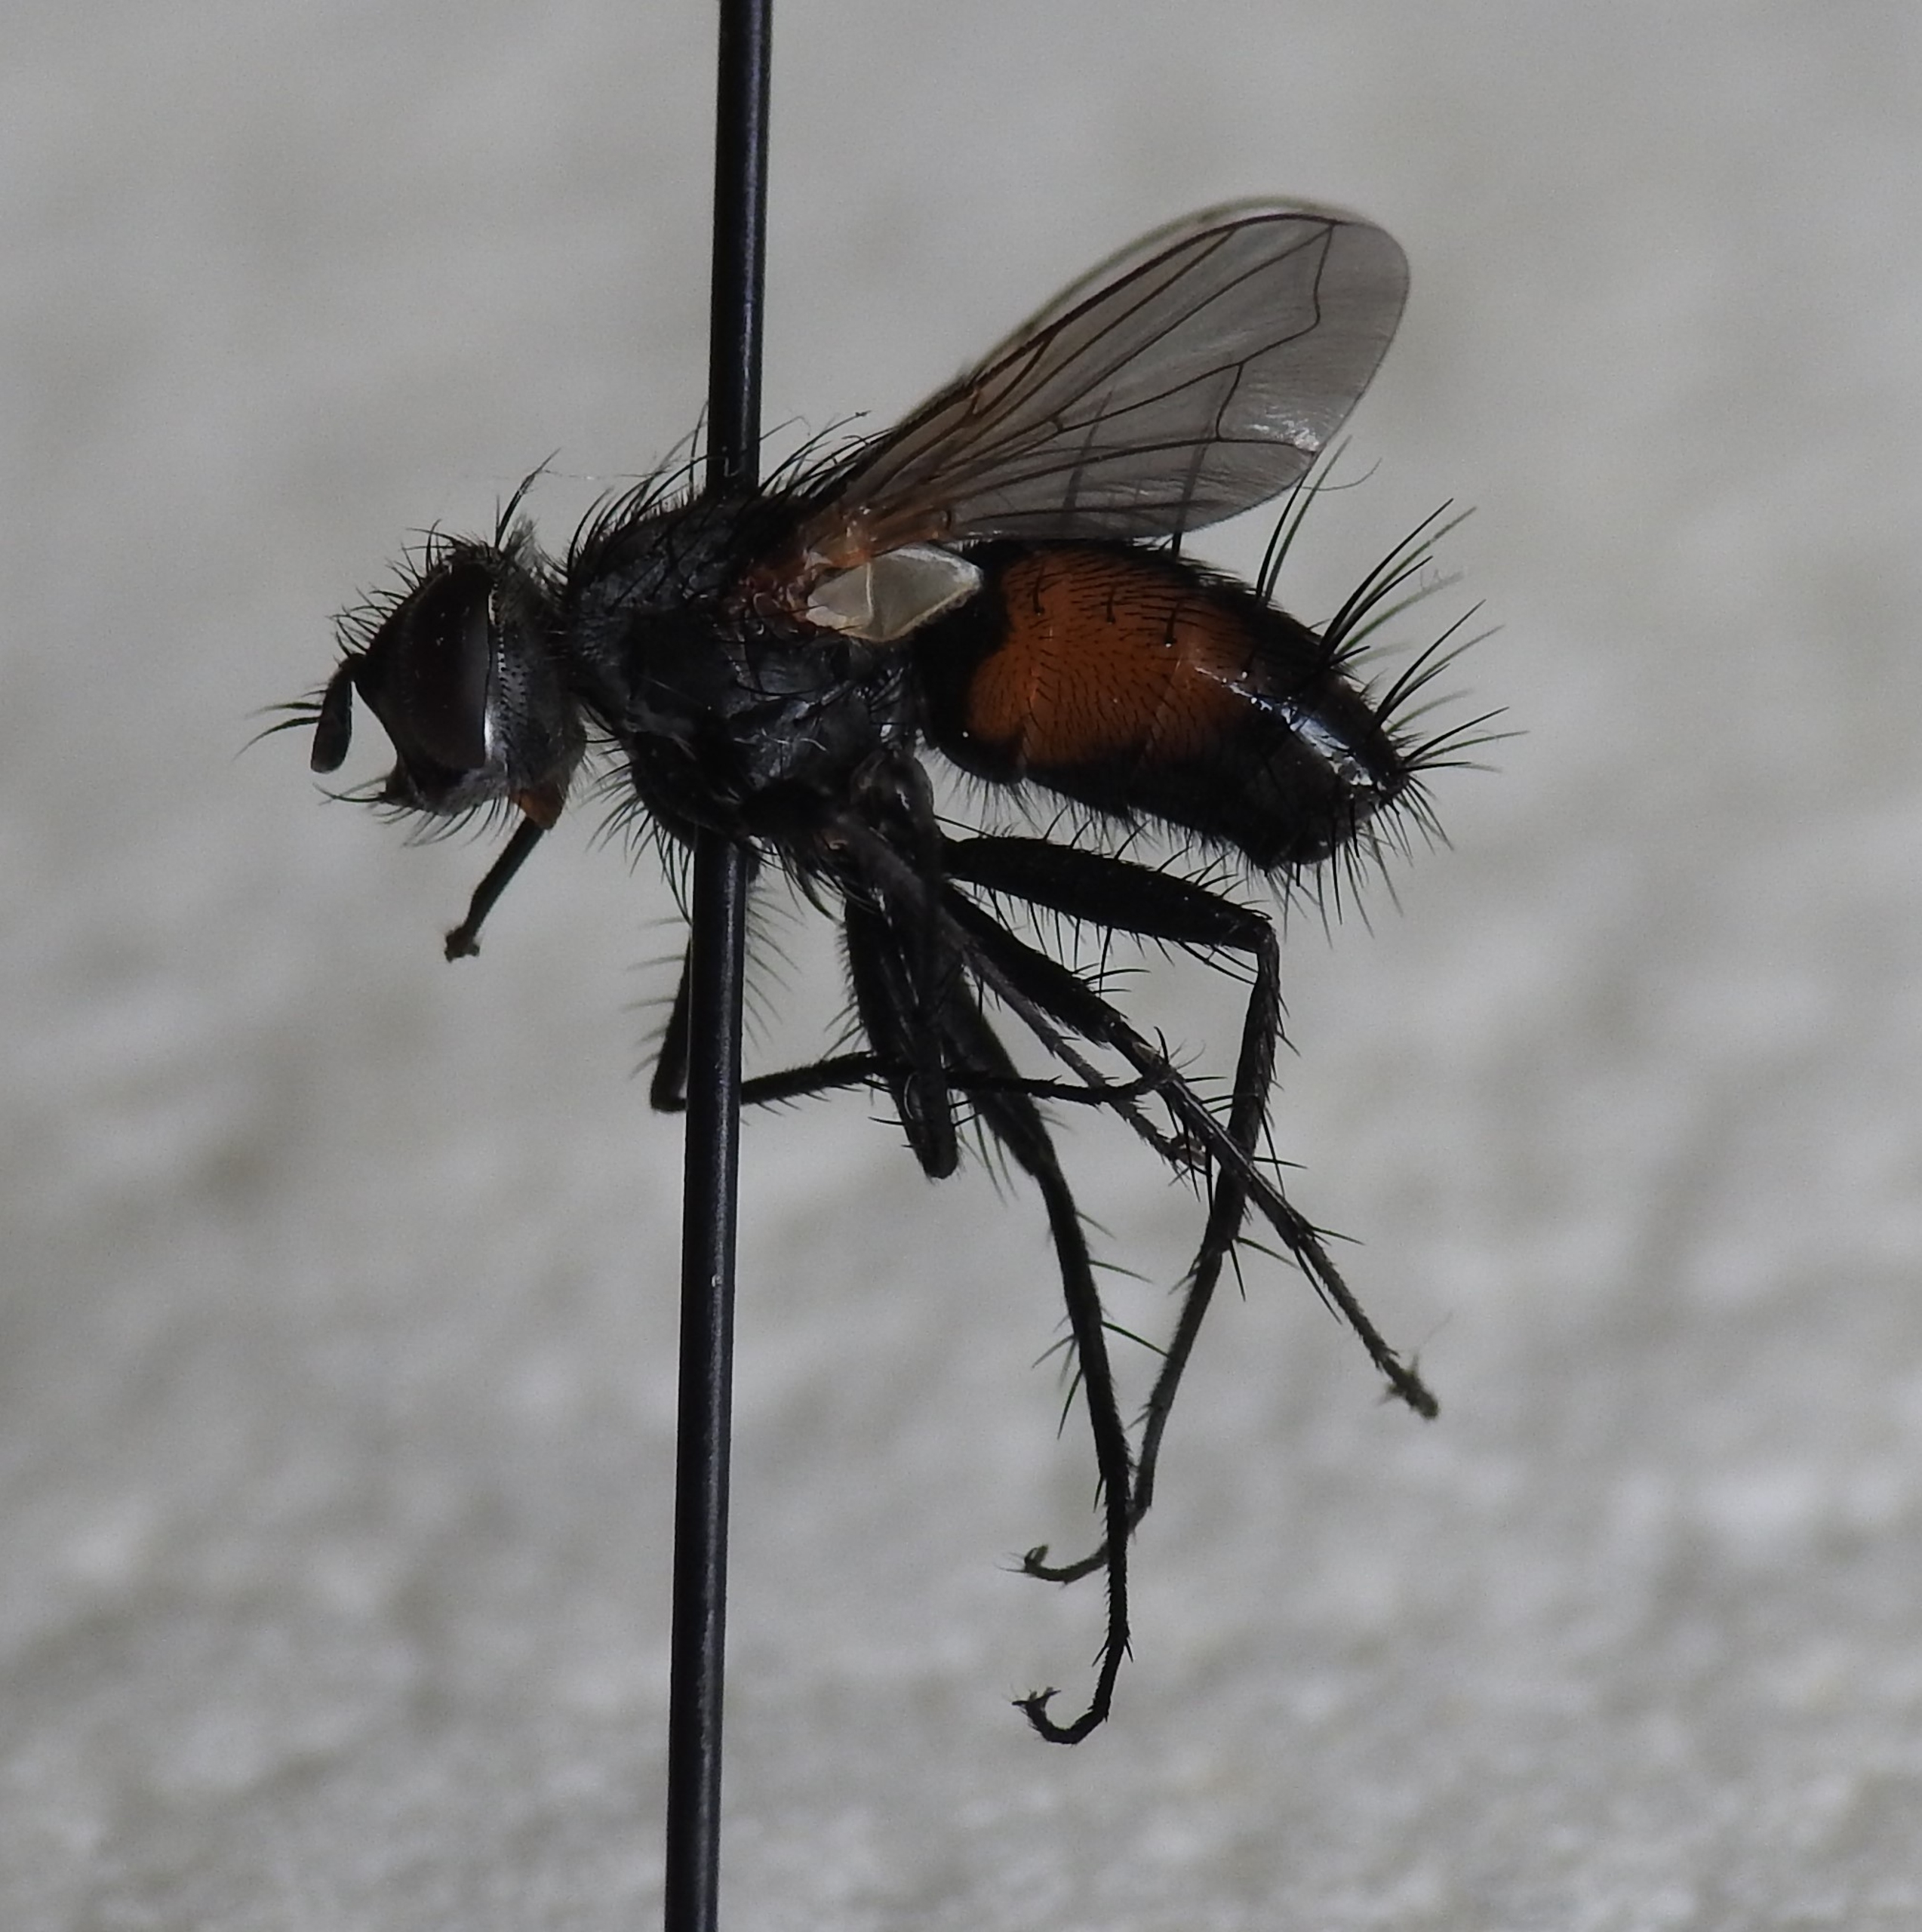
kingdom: Animalia
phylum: Arthropoda
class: Insecta
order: Diptera
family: Tachinidae
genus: Eriothrix
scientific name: Eriothrix rufomaculatus
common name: Rød snylteflue
